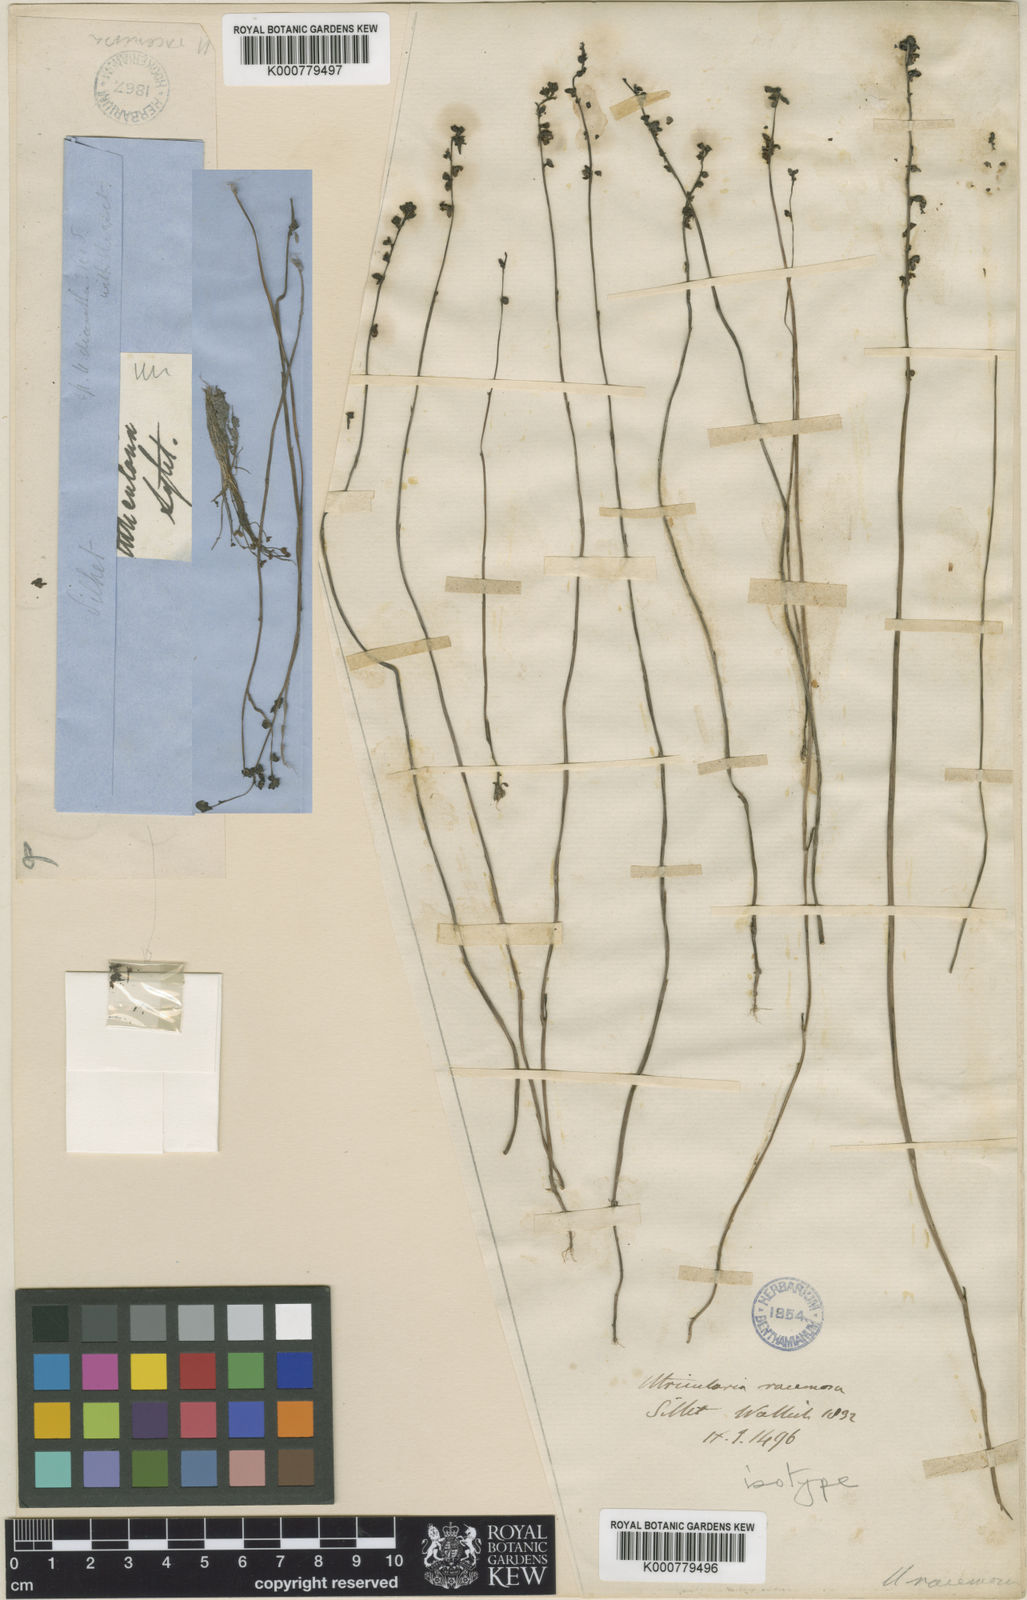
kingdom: Plantae
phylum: Tracheophyta
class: Magnoliopsida
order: Lamiales
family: Lentibulariaceae
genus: Utricularia
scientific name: Utricularia caerulea
